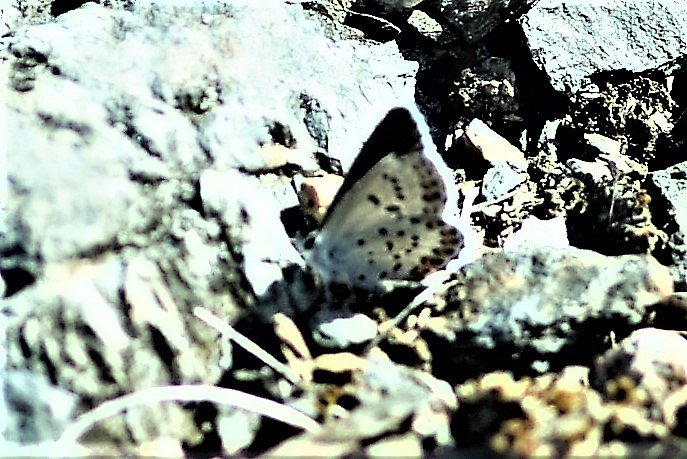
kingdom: Animalia
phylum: Arthropoda
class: Insecta
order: Lepidoptera
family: Lycaenidae
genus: Lycaeides
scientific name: Lycaeides idas
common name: Northern Blue
